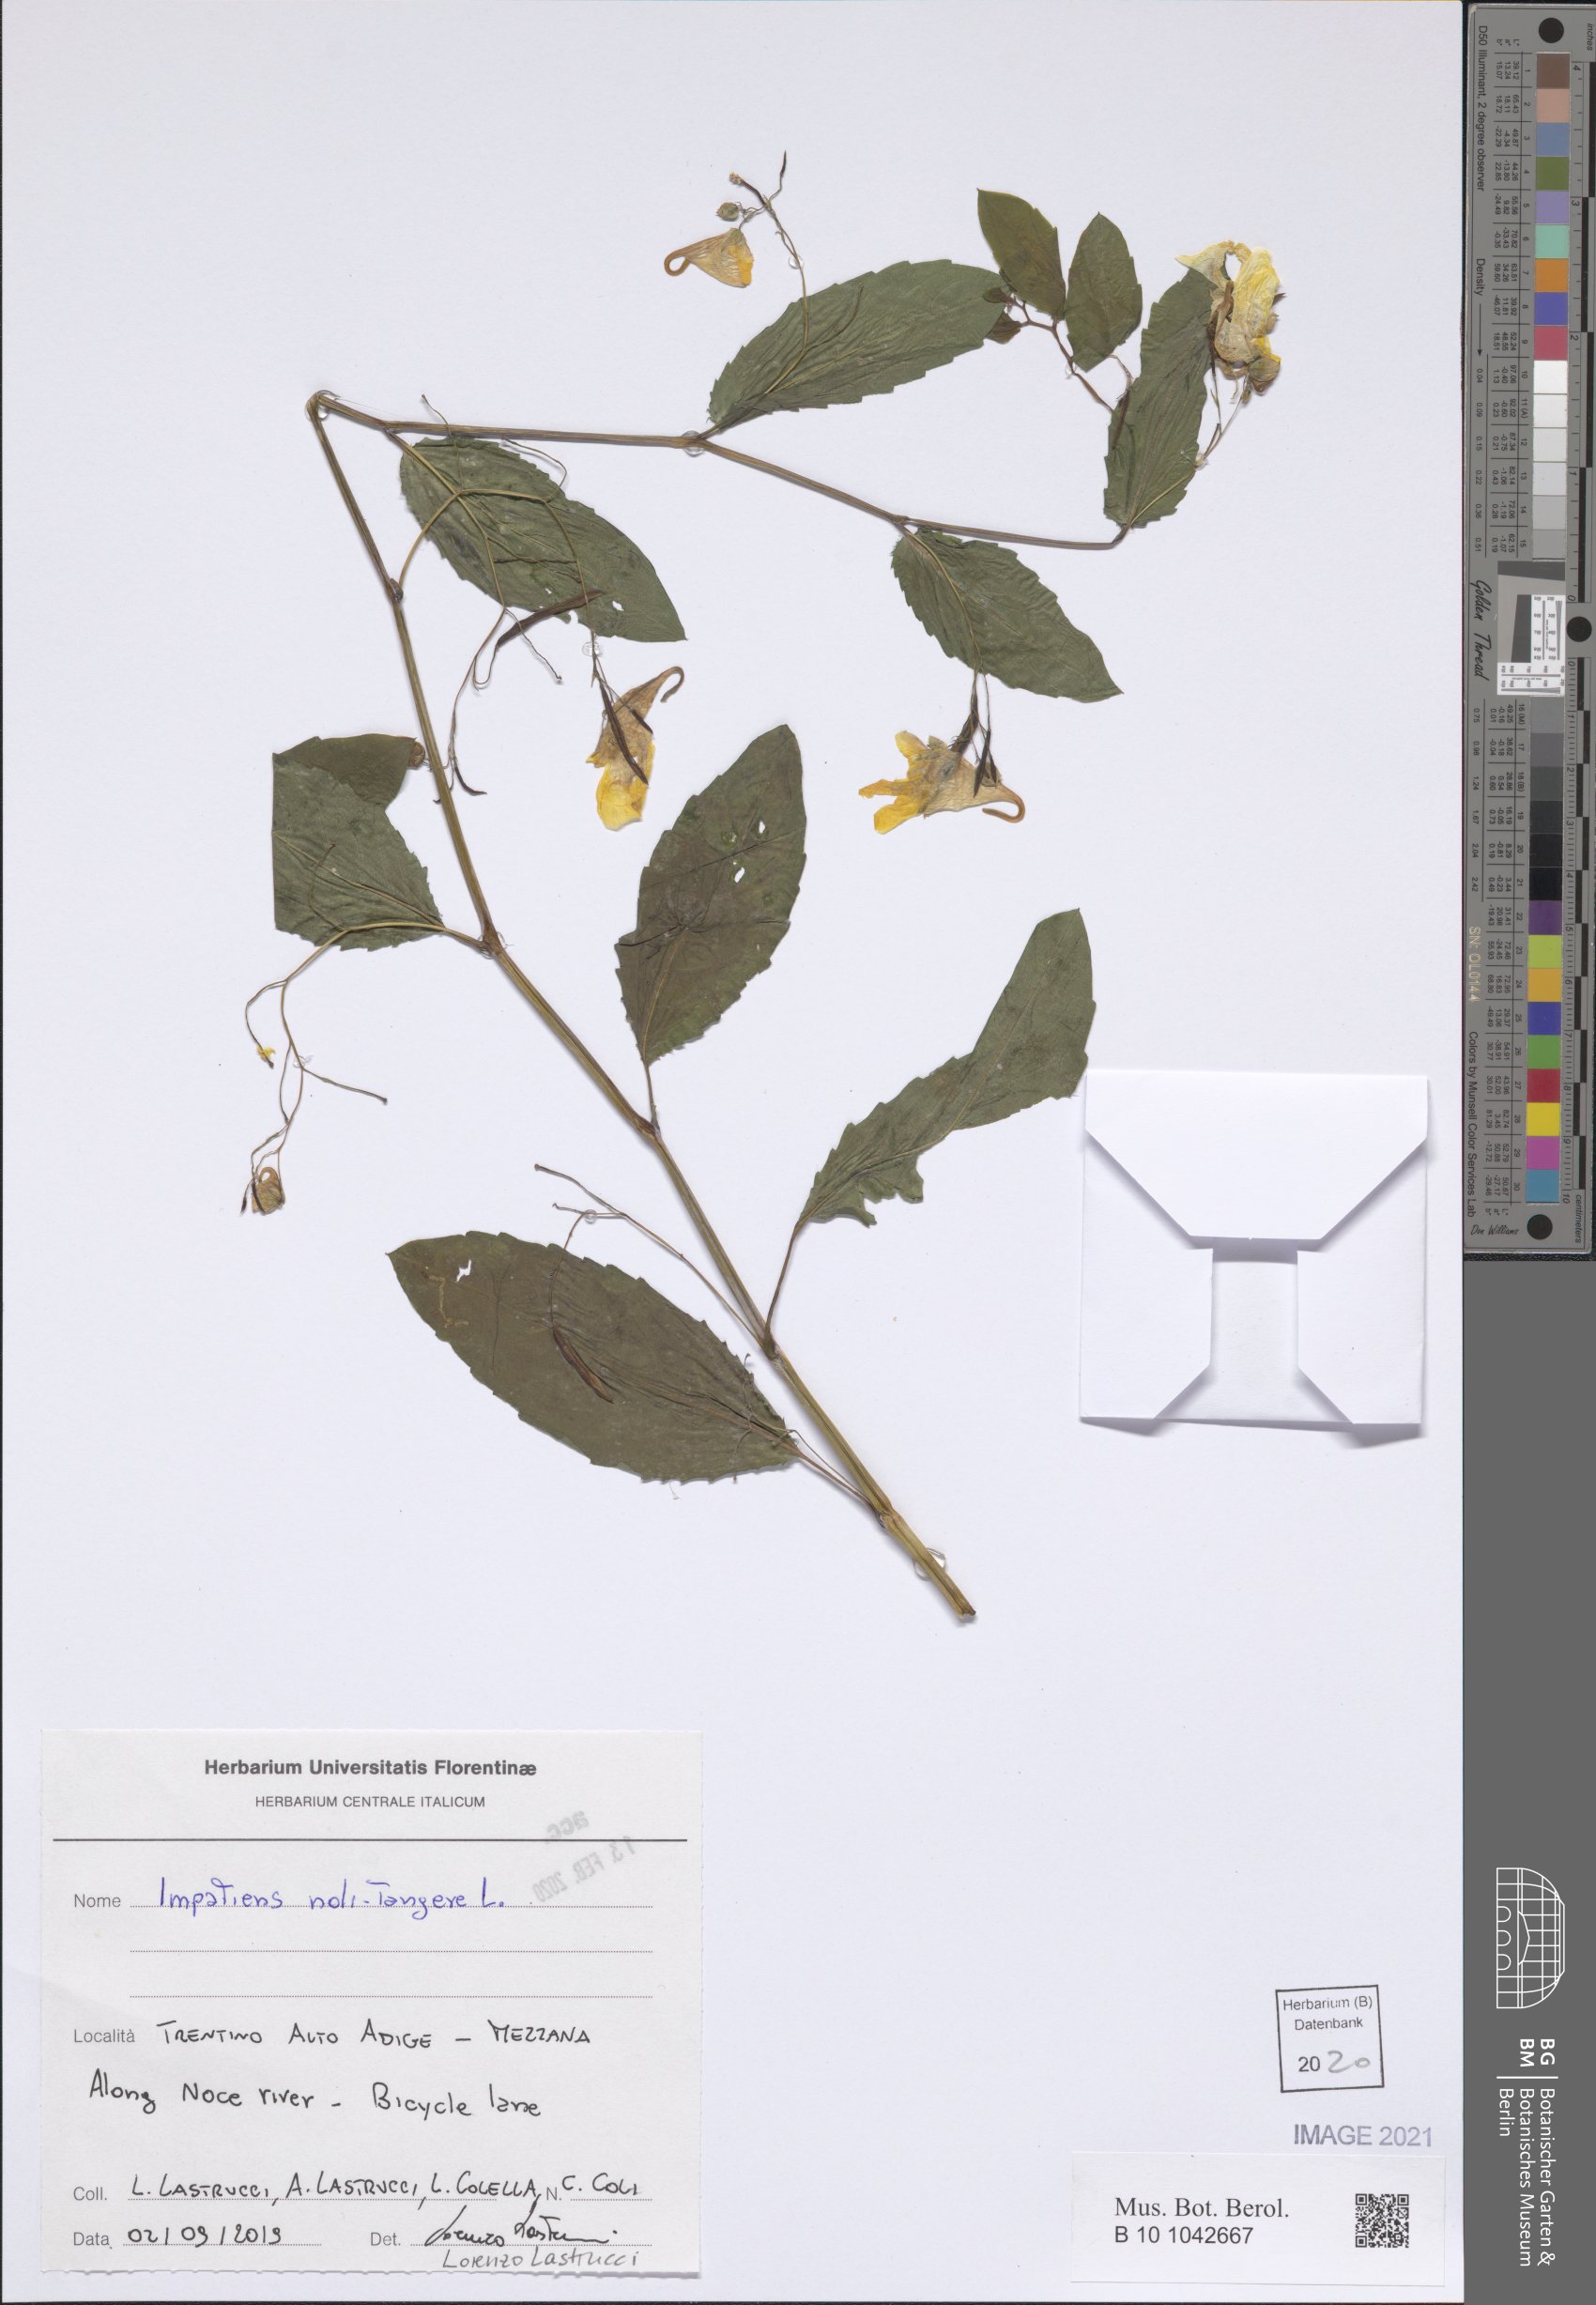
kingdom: Plantae
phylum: Tracheophyta
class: Magnoliopsida
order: Ericales
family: Balsaminaceae
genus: Impatiens
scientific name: Impatiens noli-tangere
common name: Touch-me-not balsam
